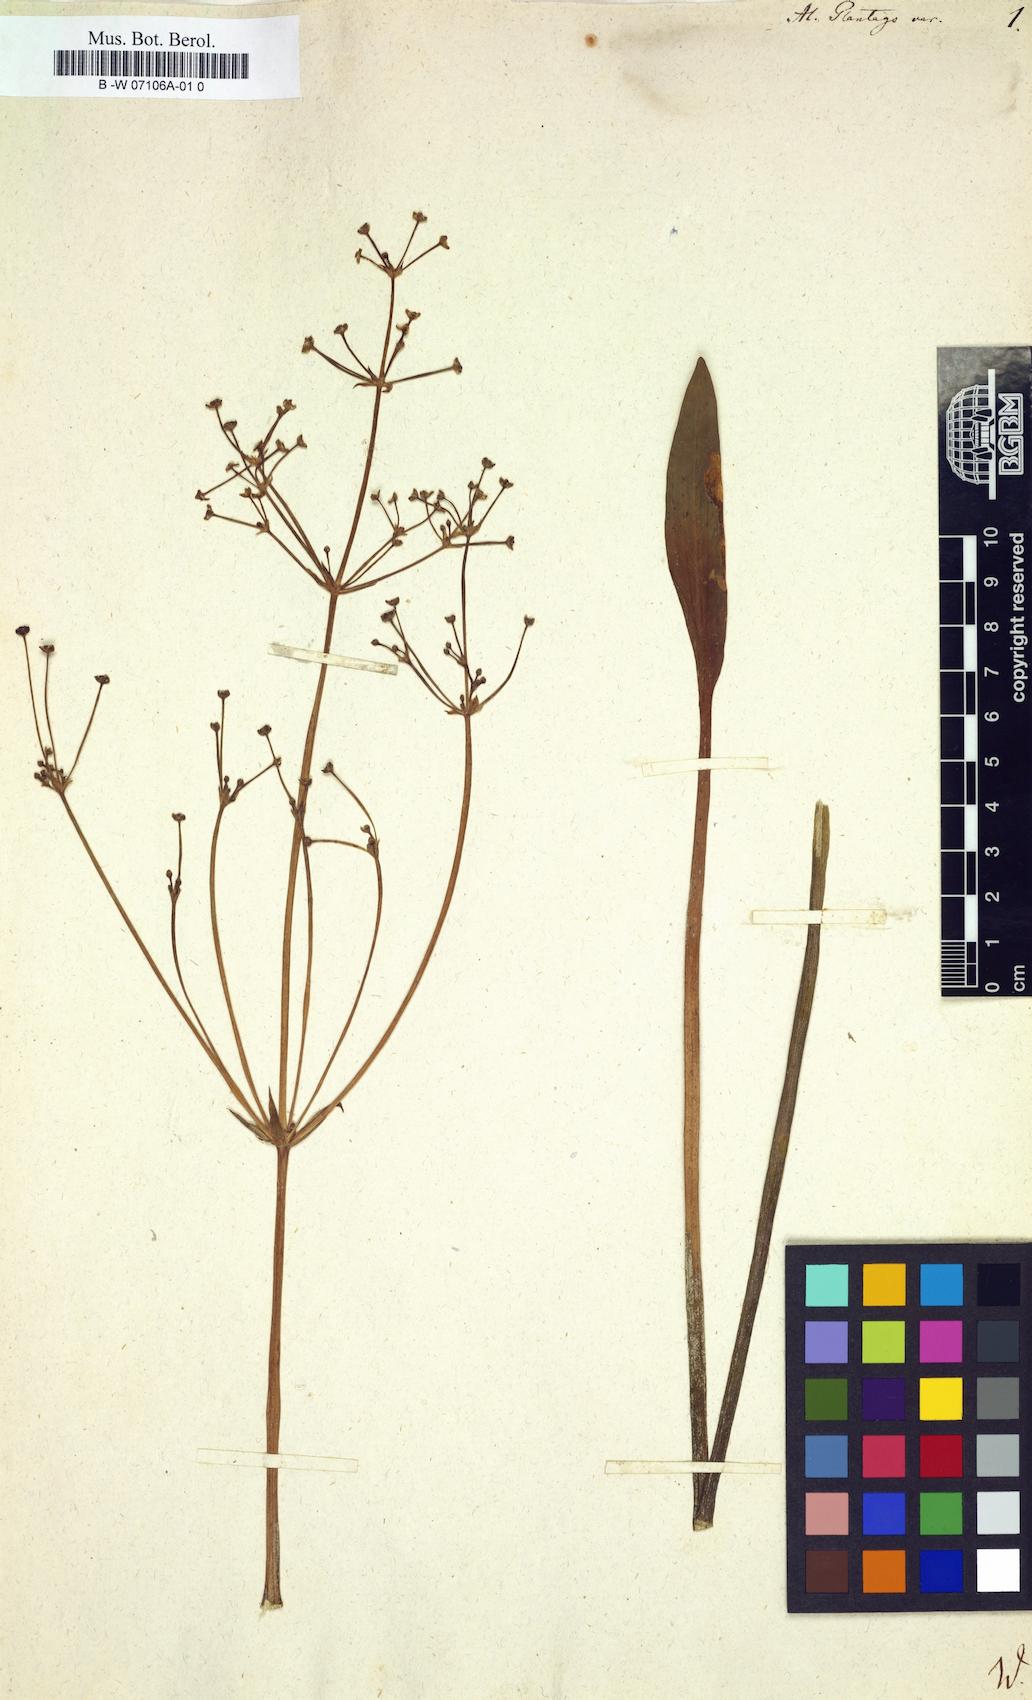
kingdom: Plantae
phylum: Tracheophyta
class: Liliopsida
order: Alismatales
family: Alismataceae
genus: Alisma
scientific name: Alisma plantago-aquatica
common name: Water-plantain
